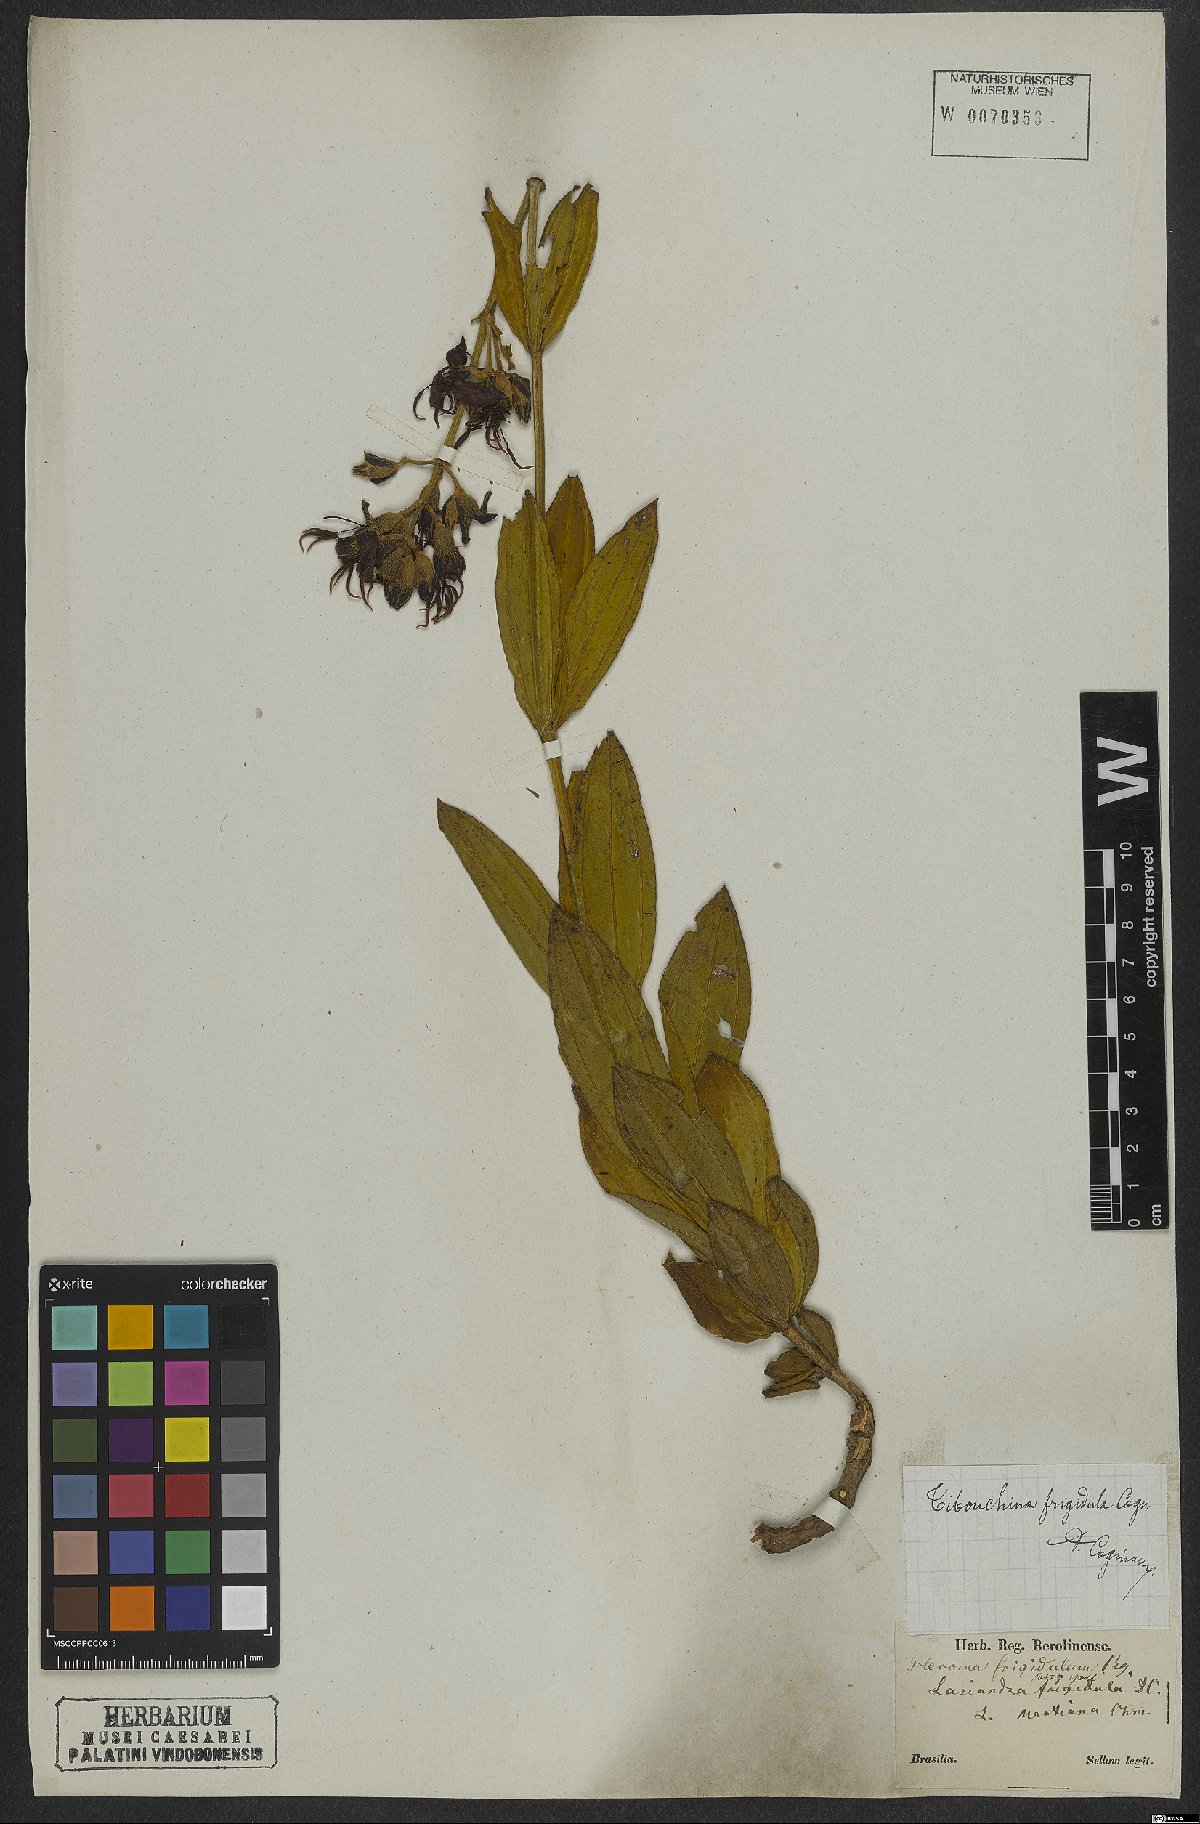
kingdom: Plantae
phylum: Tracheophyta
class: Magnoliopsida
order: Myrtales
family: Melastomataceae
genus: Pleroma
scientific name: Pleroma martiusianum
